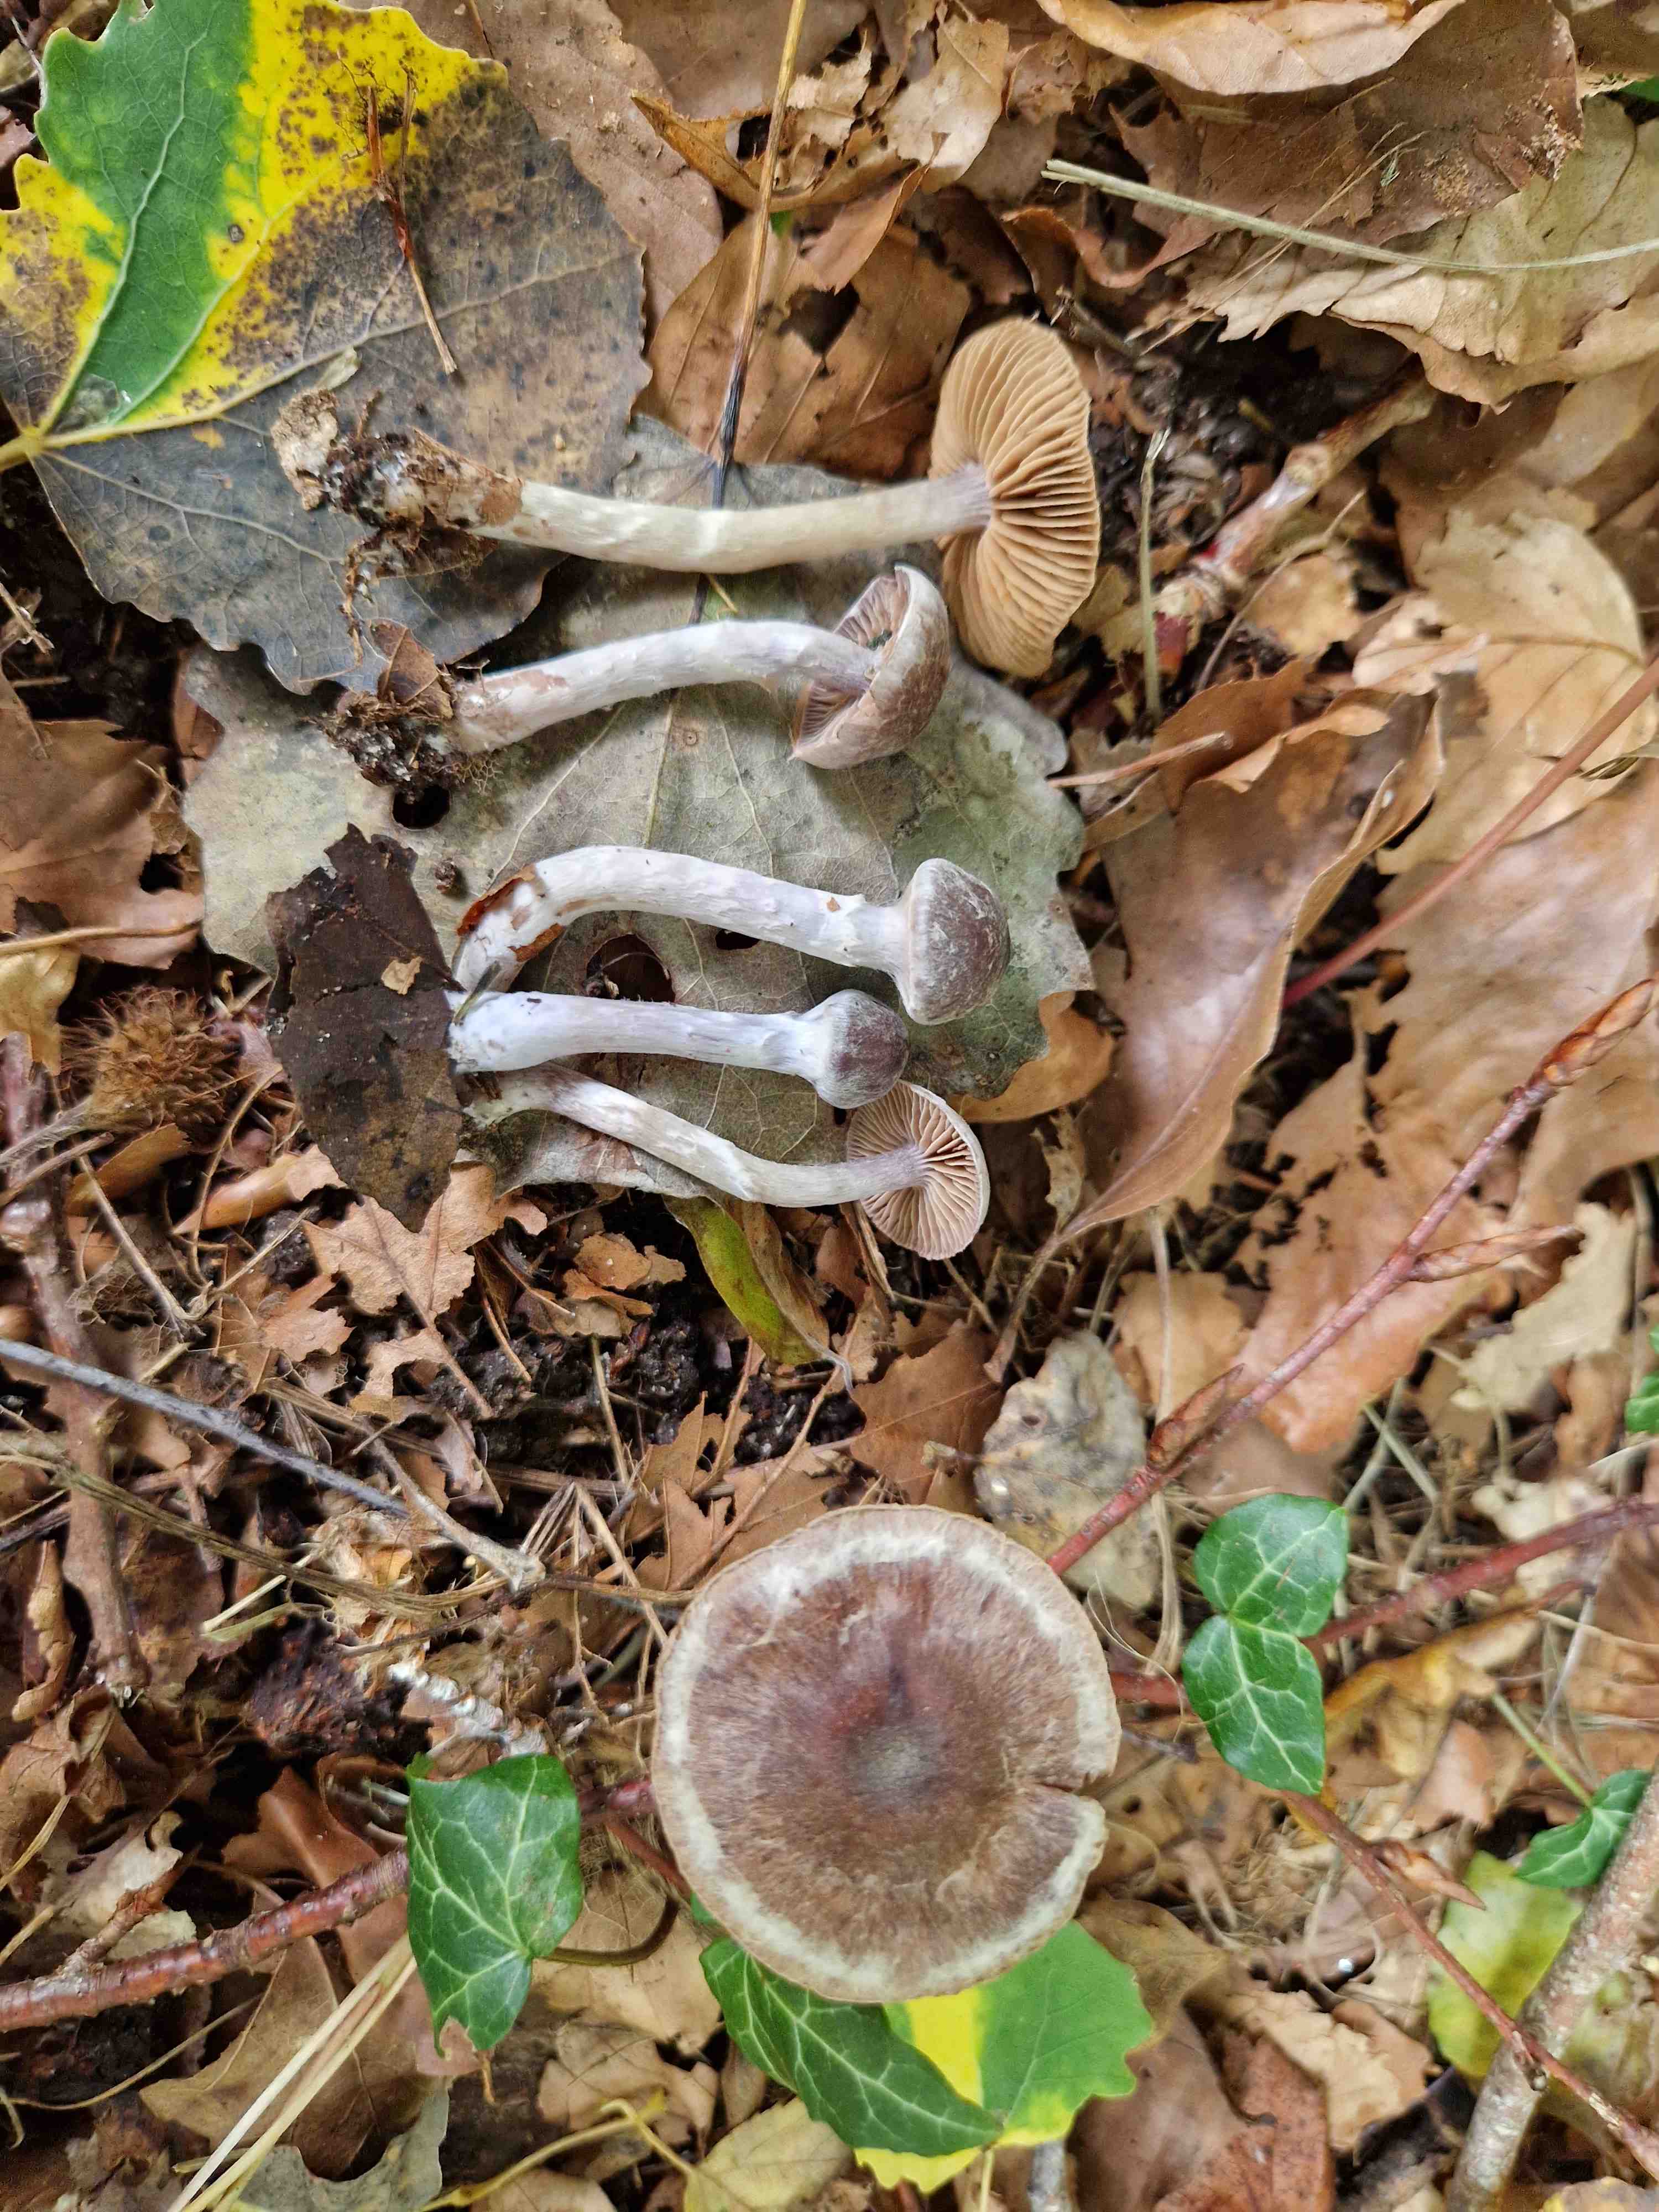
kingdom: Fungi
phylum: Basidiomycota
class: Agaricomycetes
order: Agaricales
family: Cortinariaceae
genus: Cortinarius
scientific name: Cortinarius
